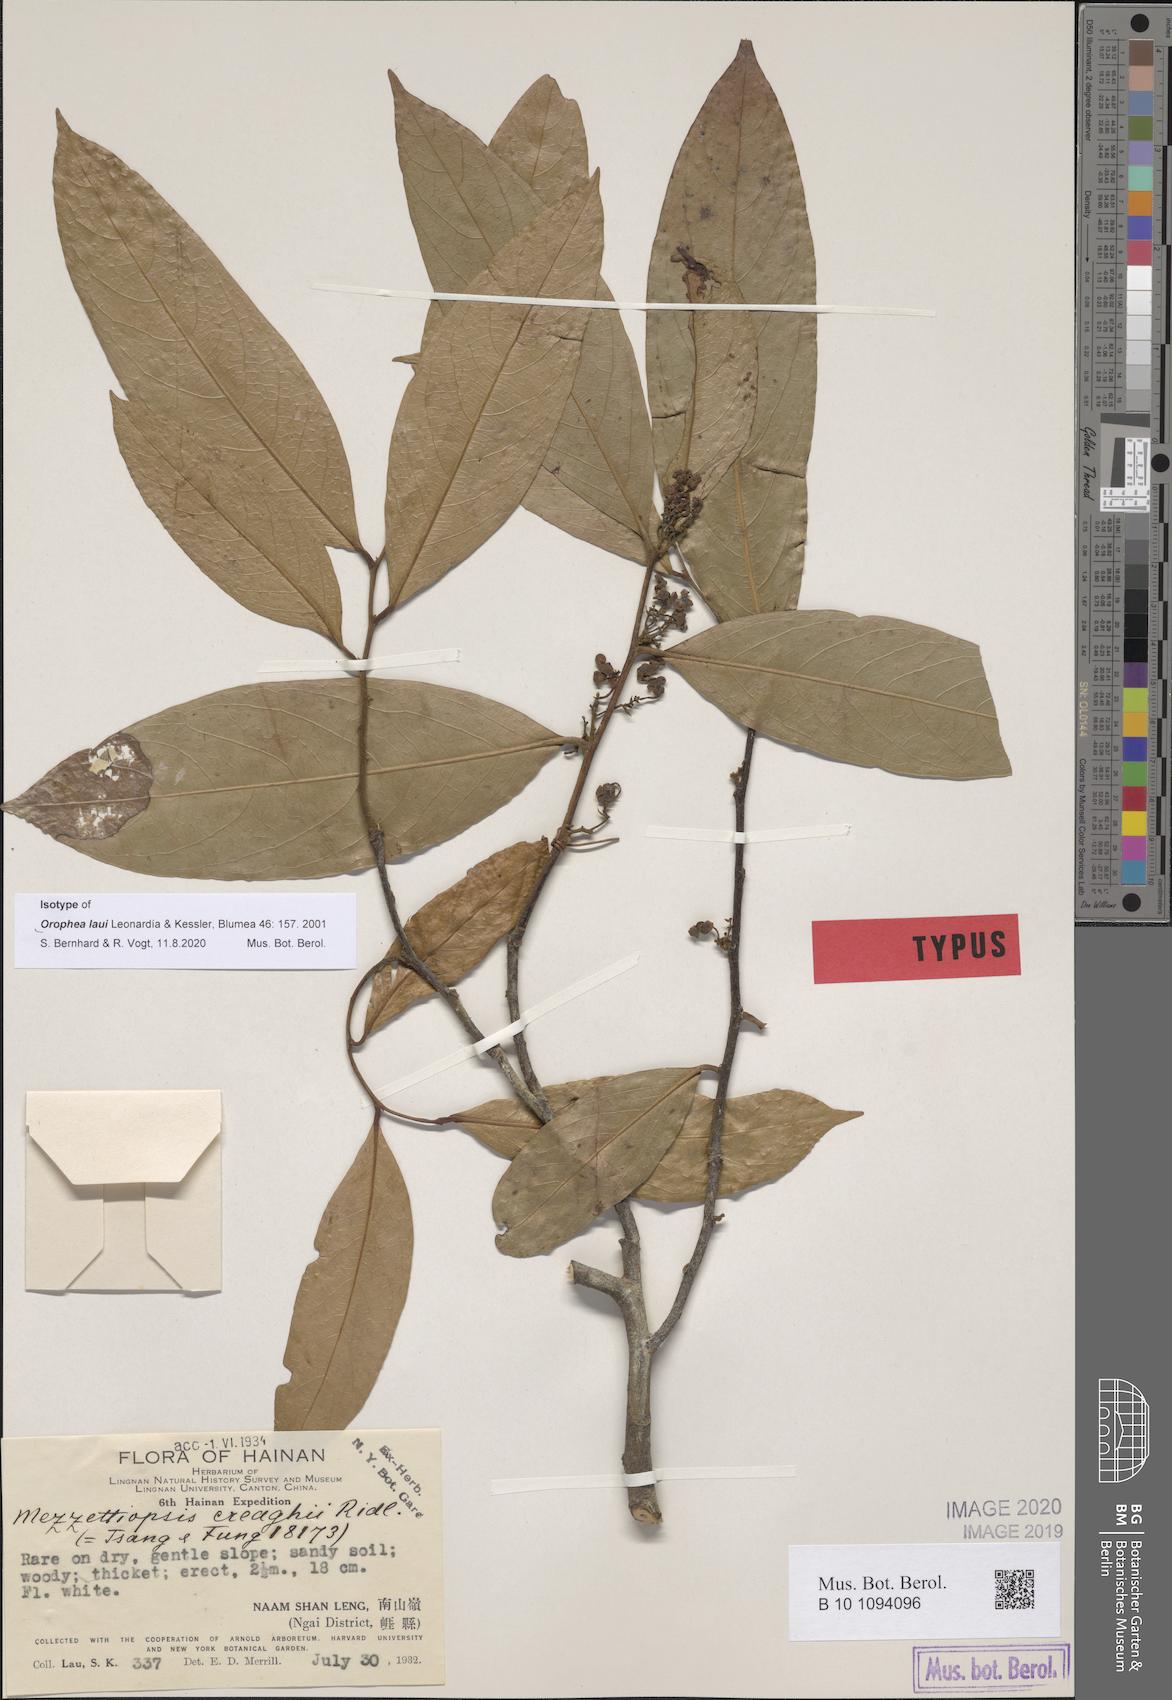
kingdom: Plantae
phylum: Tracheophyta
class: Magnoliopsida
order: Magnoliales
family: Annonaceae
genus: Orophea
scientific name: Orophea laui
